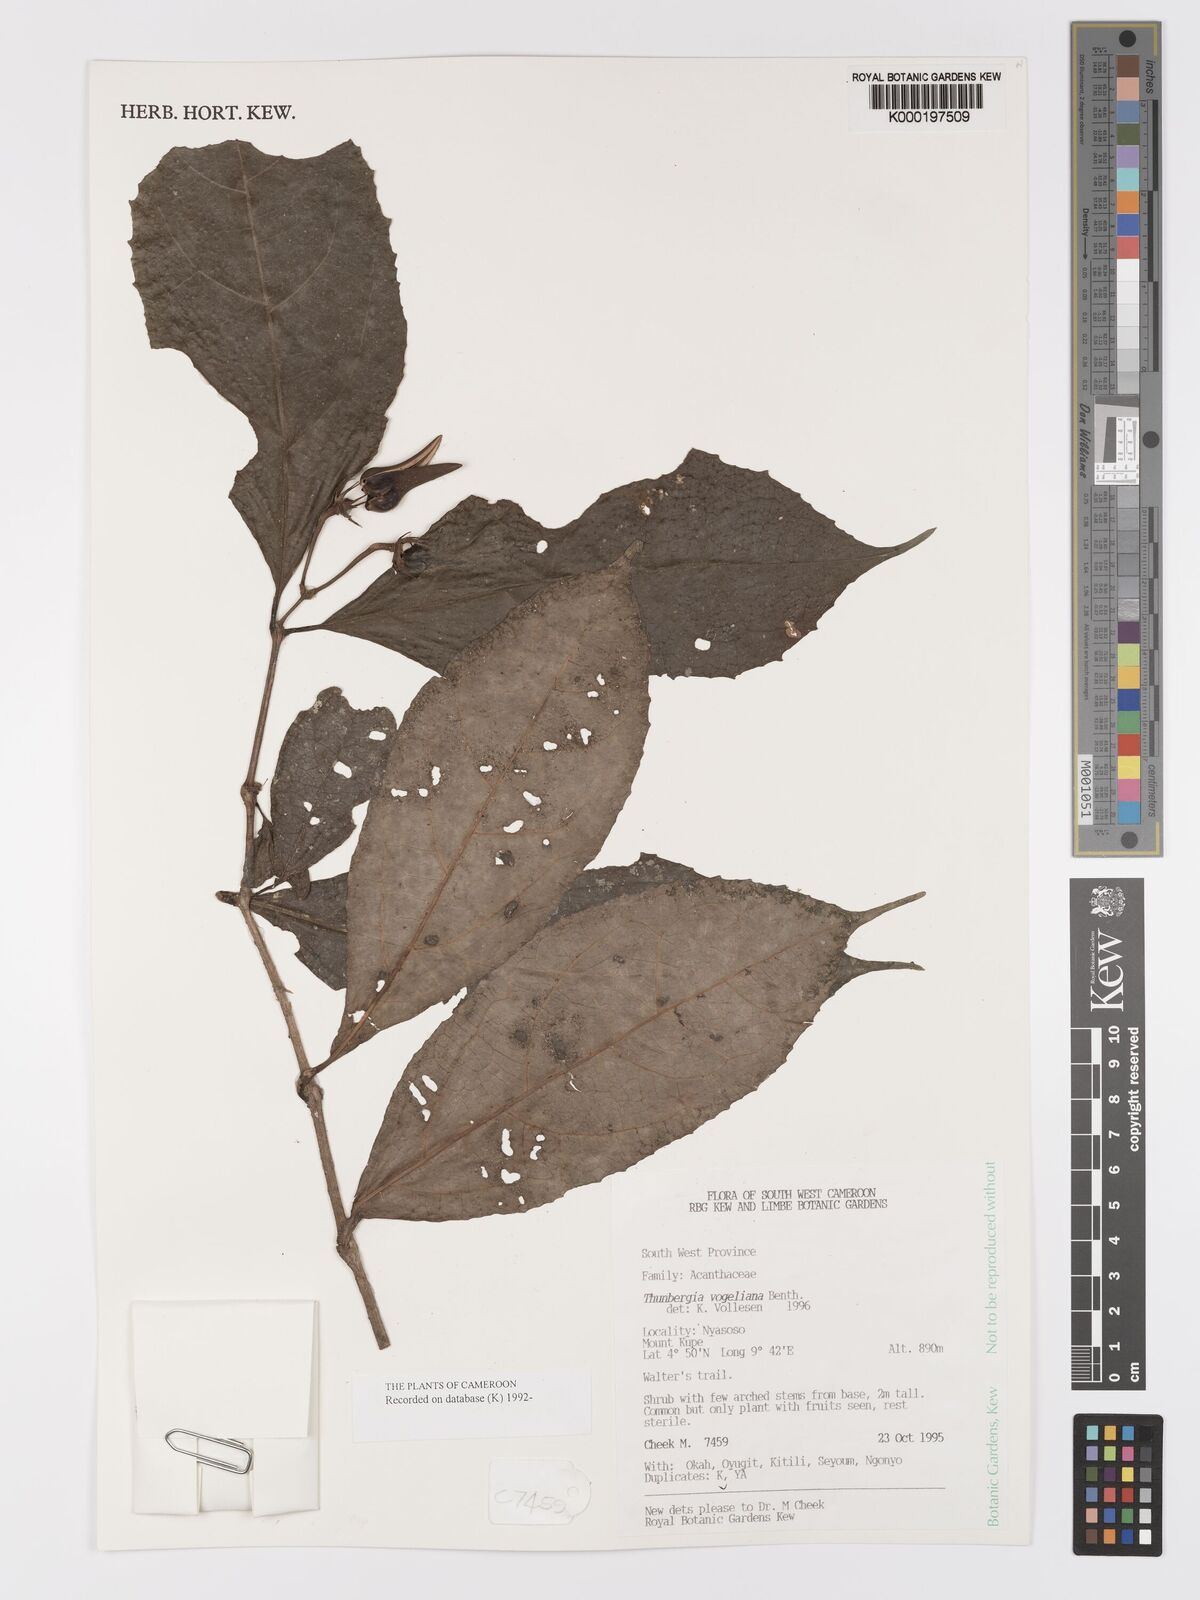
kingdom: Plantae
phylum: Tracheophyta
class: Magnoliopsida
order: Lamiales
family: Acanthaceae
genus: Thunbergia
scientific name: Thunbergia vogeliana
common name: Acanthaceae
